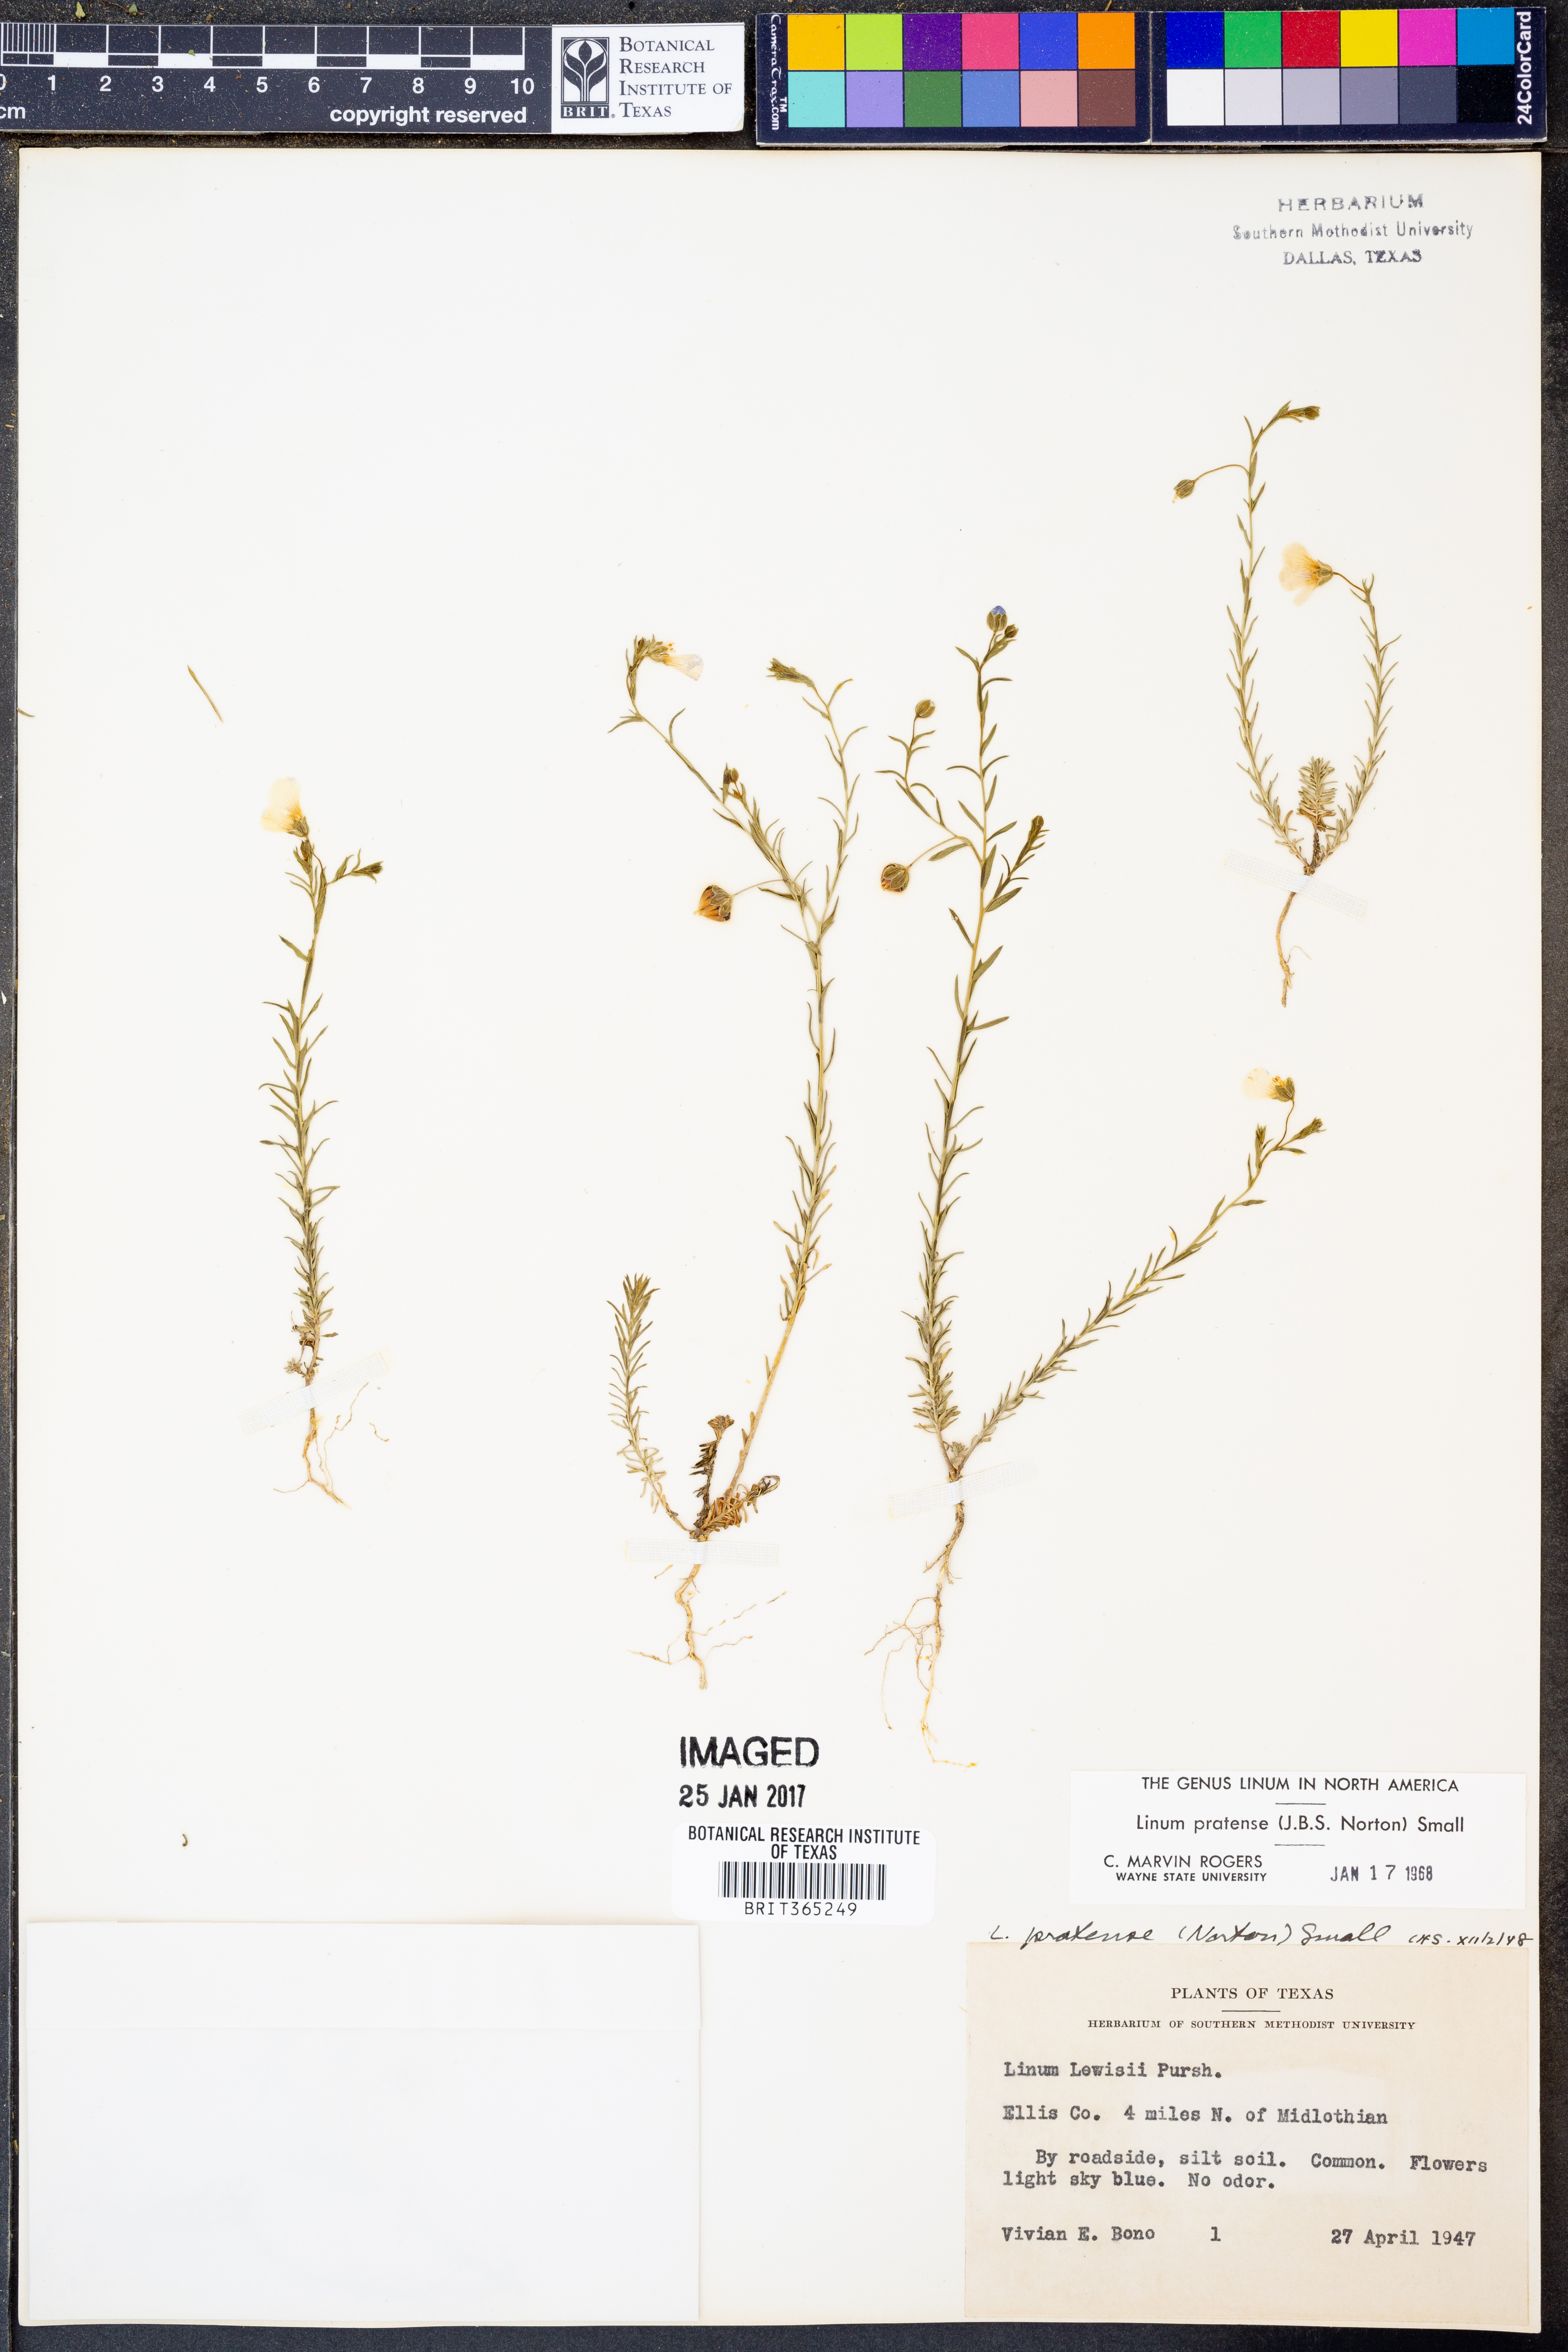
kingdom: Plantae
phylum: Tracheophyta
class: Magnoliopsida
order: Malpighiales
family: Linaceae
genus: Linum
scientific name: Linum pratense
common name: Norton's flax
